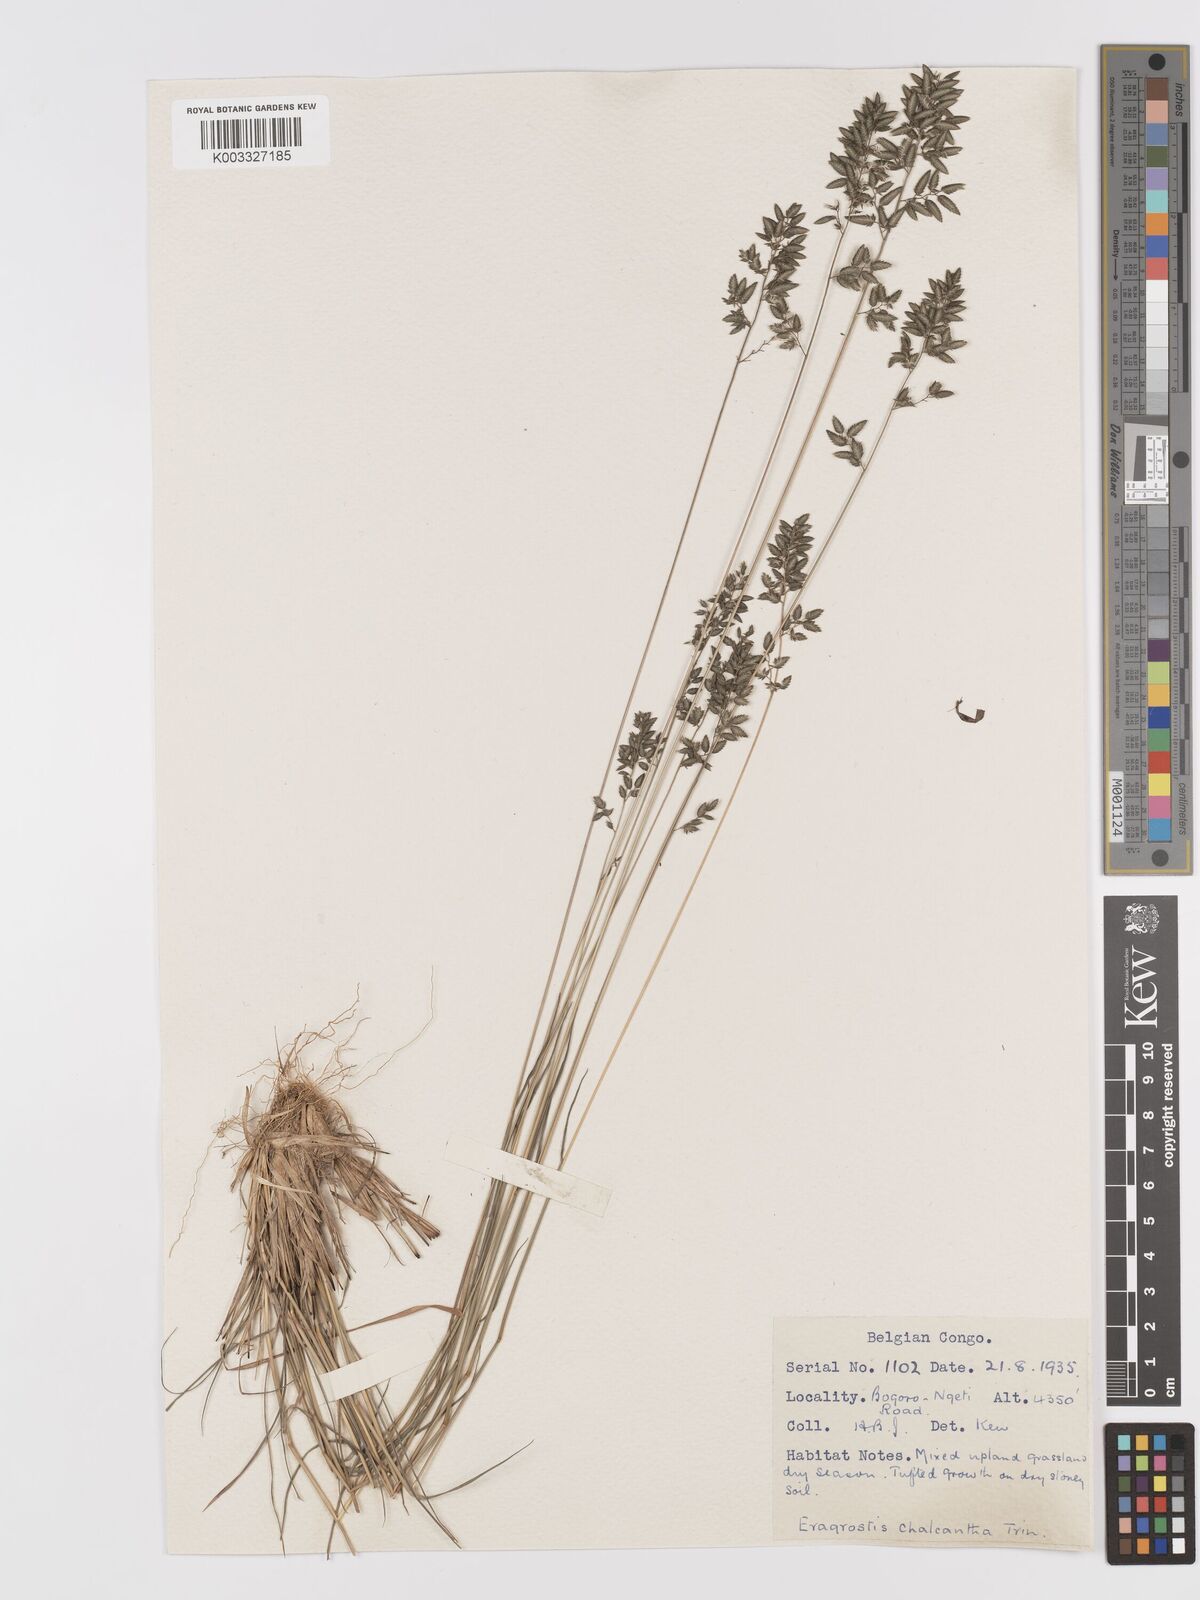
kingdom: Plantae
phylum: Tracheophyta
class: Liliopsida
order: Poales
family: Poaceae
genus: Eragrostis
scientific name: Eragrostis racemosa
